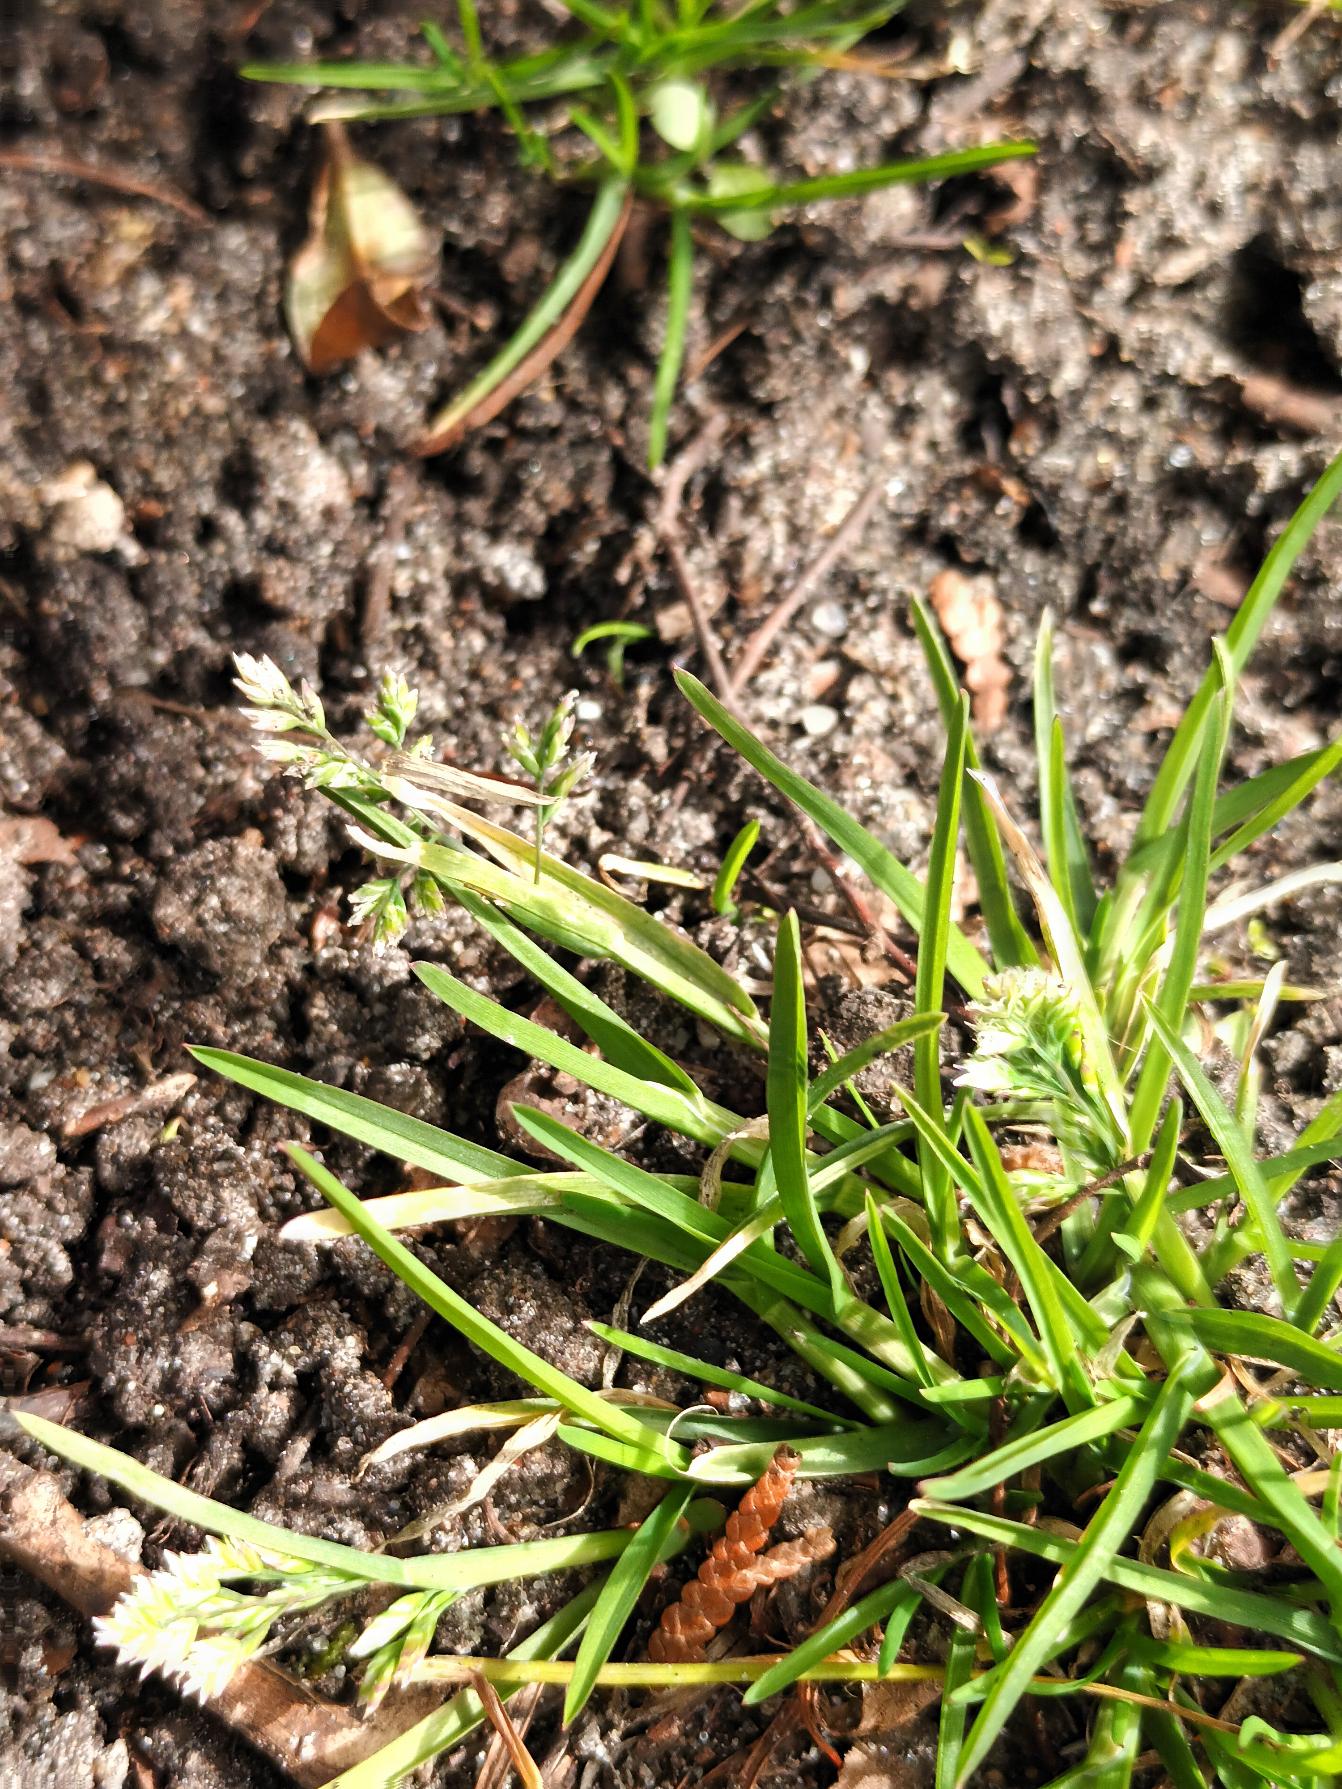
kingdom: Plantae
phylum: Tracheophyta
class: Liliopsida
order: Poales
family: Poaceae
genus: Poa
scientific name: Poa annua
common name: Enårig rapgræs
